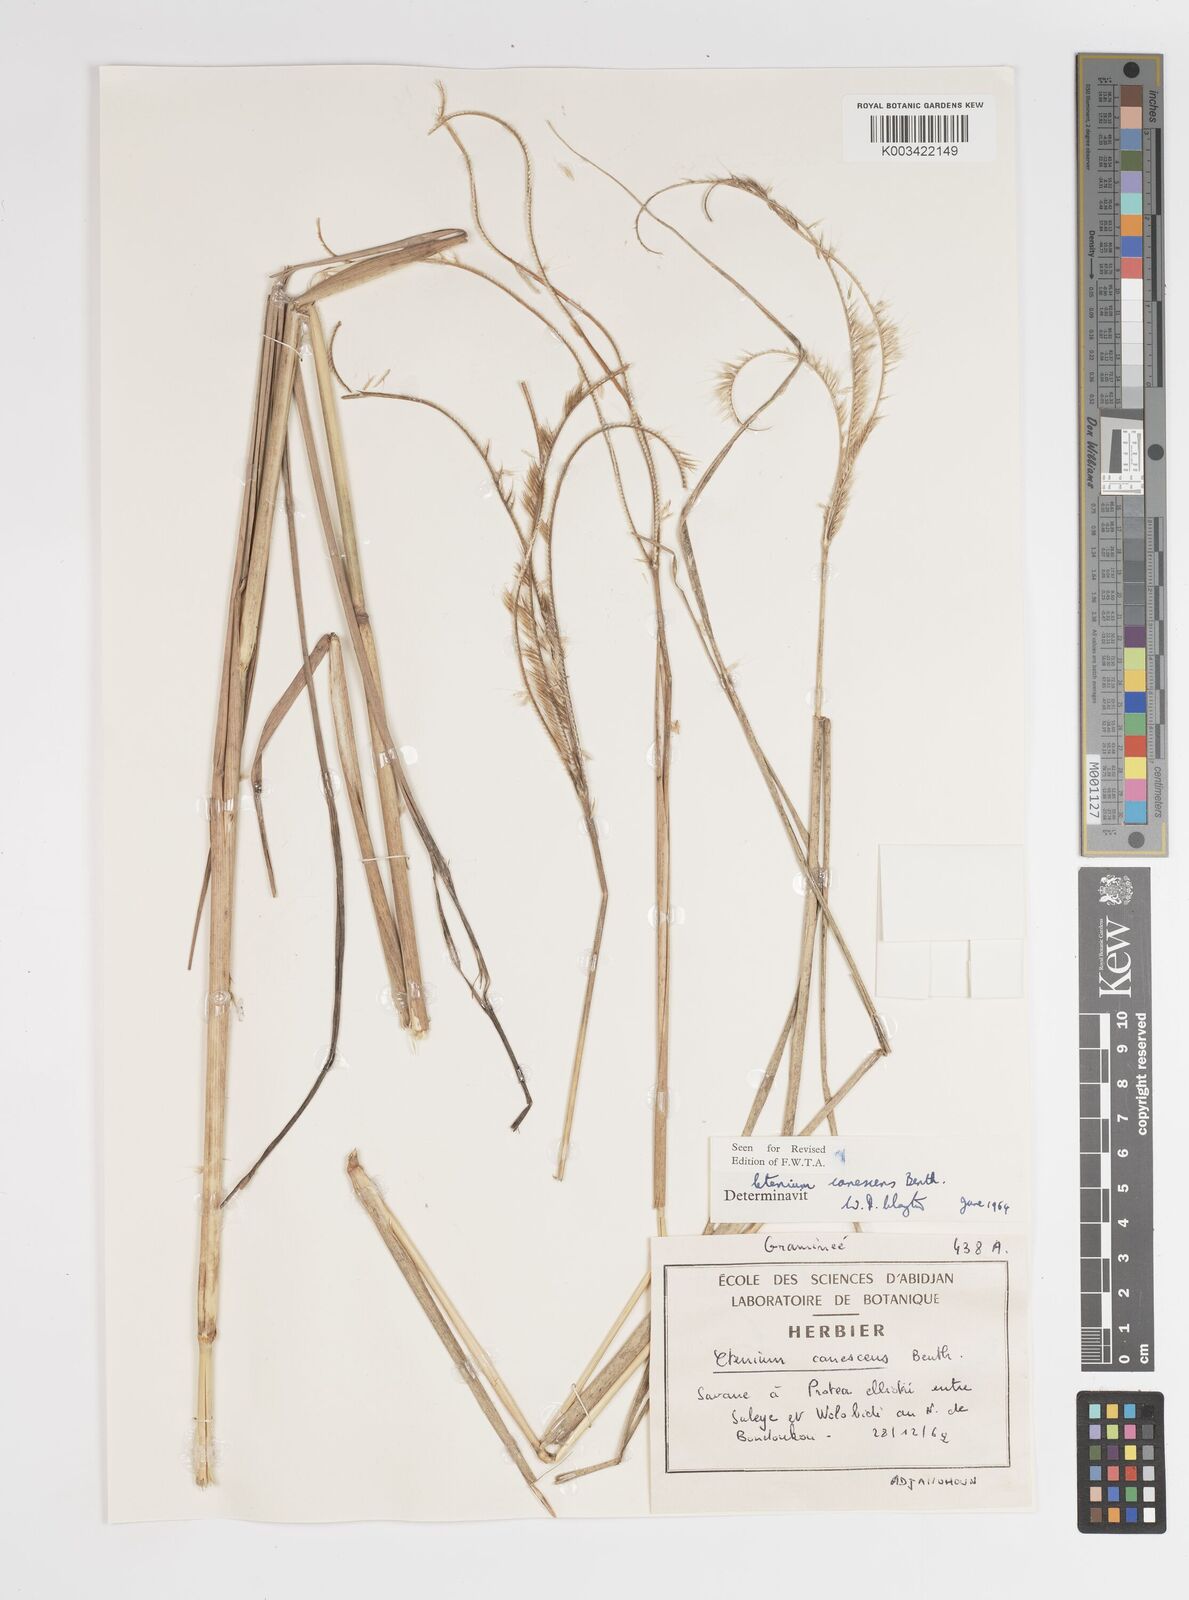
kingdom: Plantae
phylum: Tracheophyta
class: Liliopsida
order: Poales
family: Poaceae
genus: Ctenium
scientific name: Ctenium canescens
